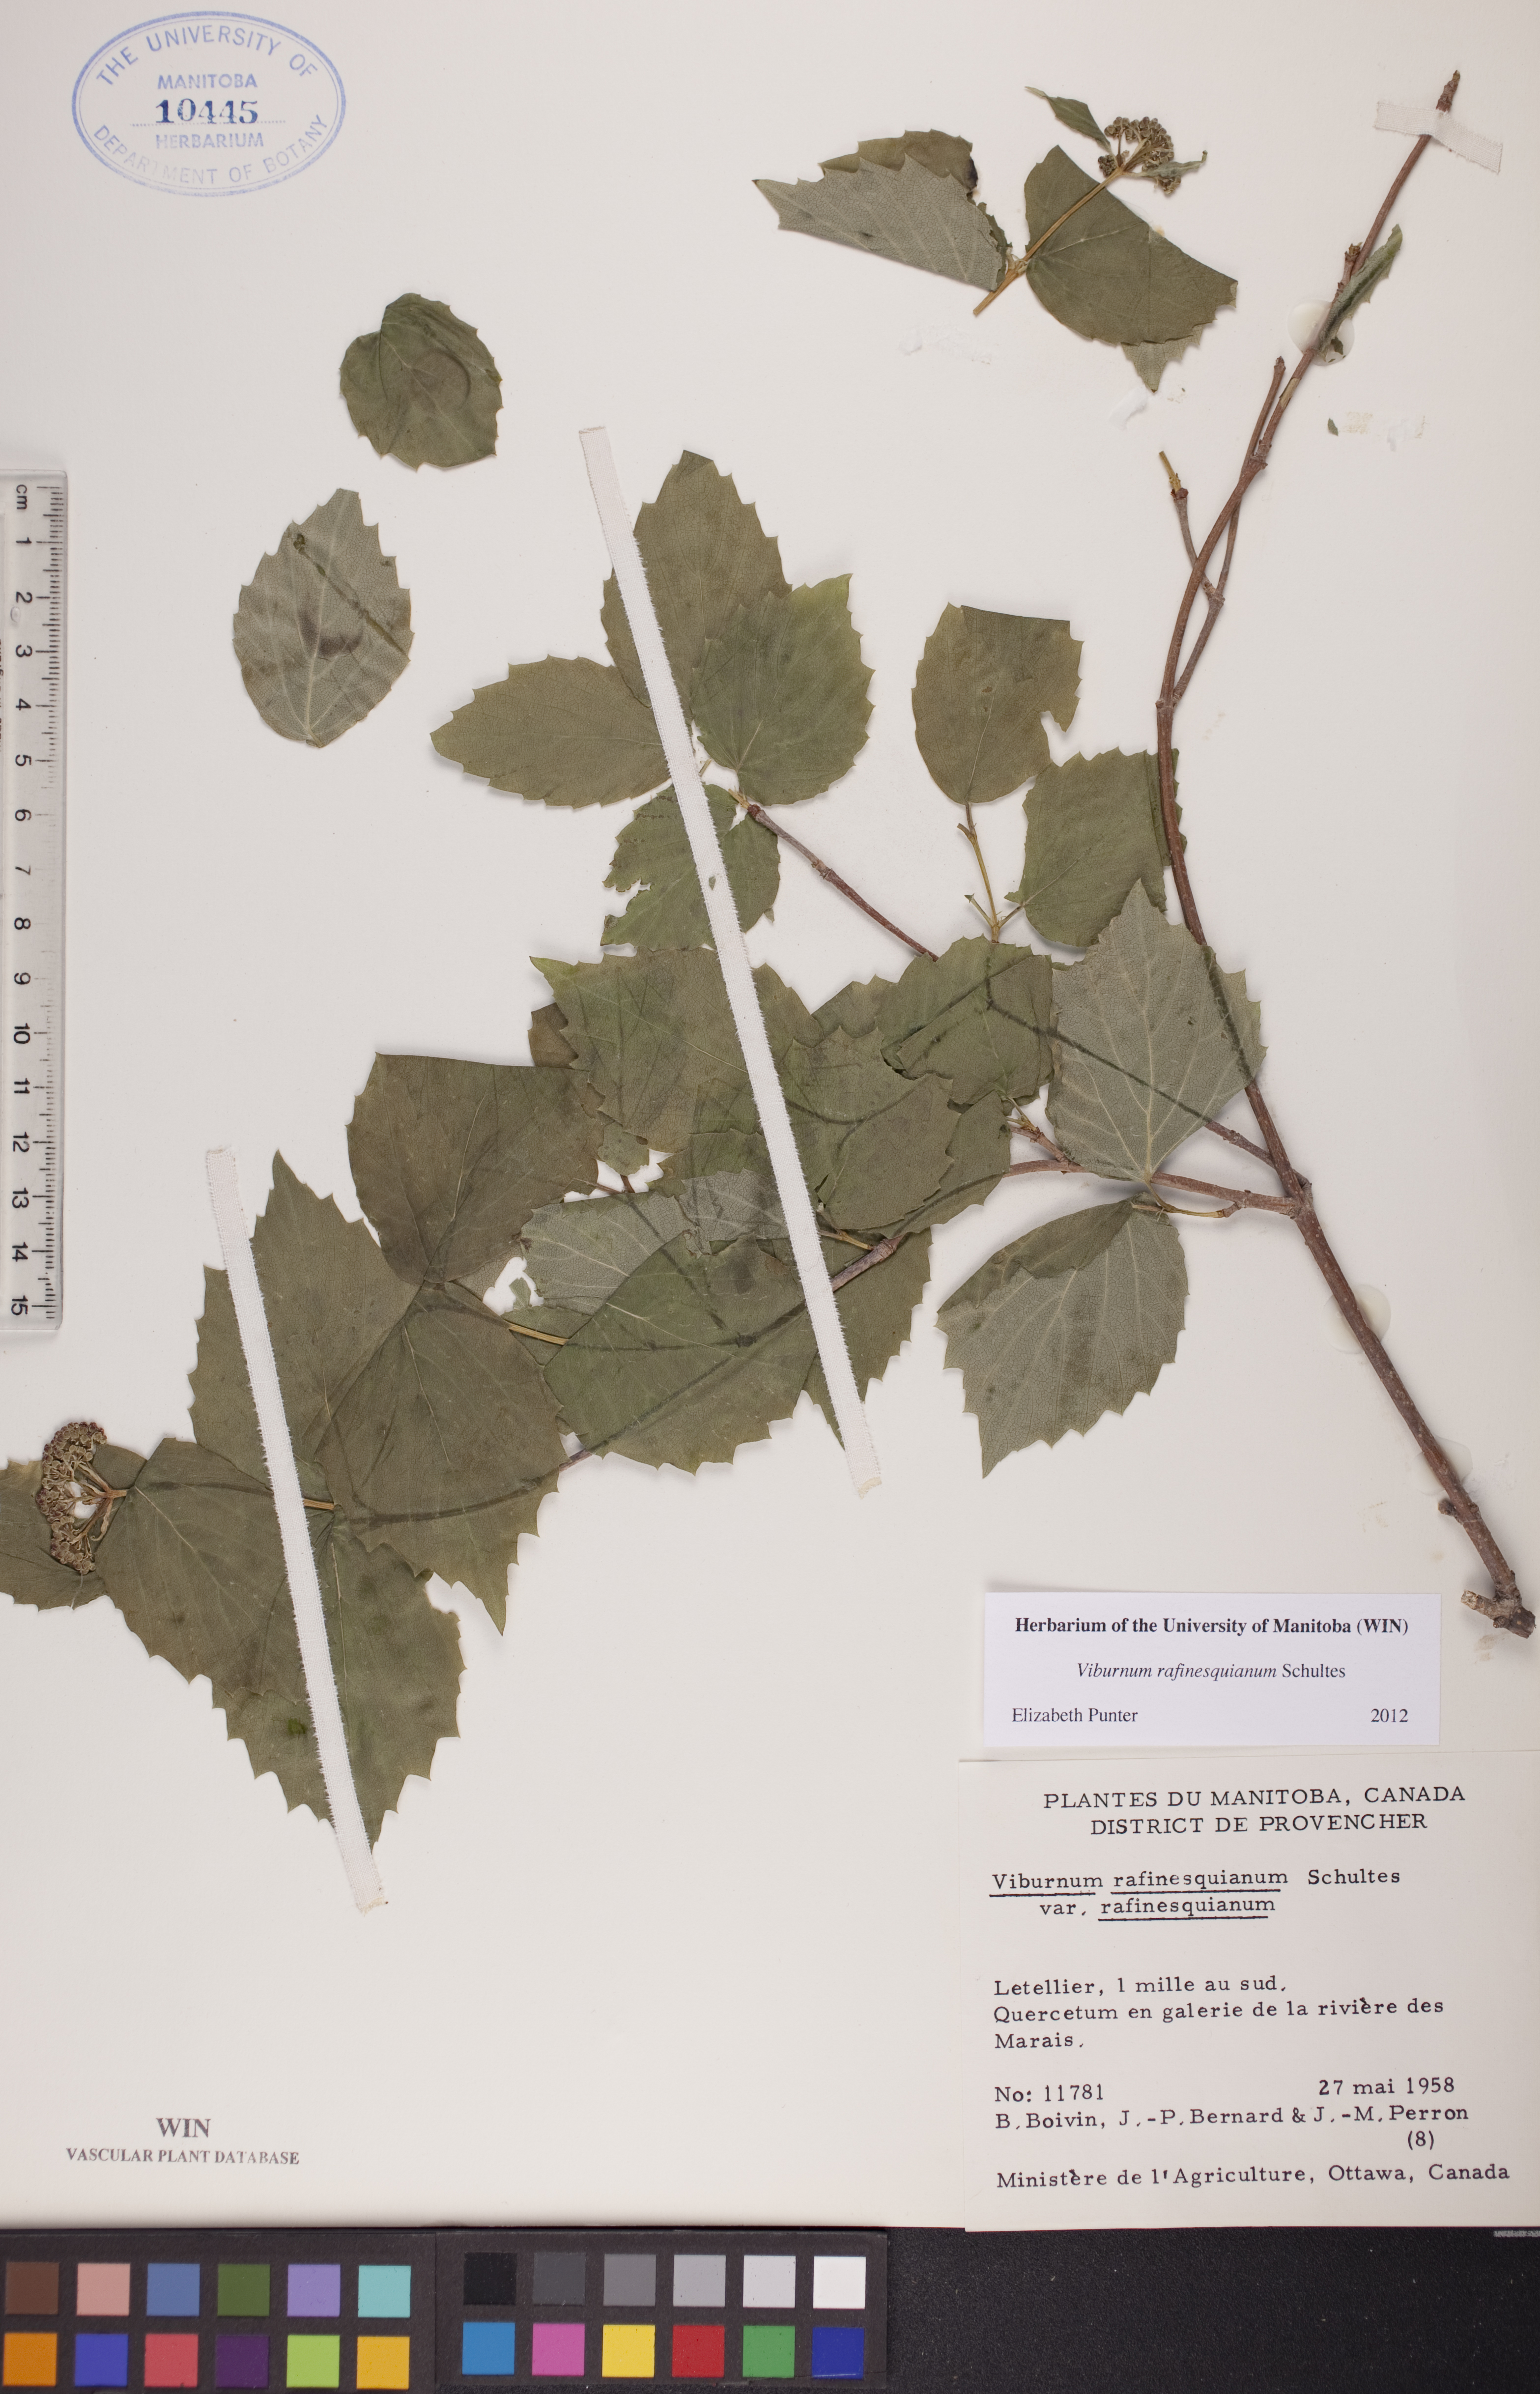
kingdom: Plantae
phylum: Tracheophyta
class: Magnoliopsida
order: Dipsacales
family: Viburnaceae
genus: Viburnum
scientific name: Viburnum rafinesquianum
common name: Downy arrow-wood
